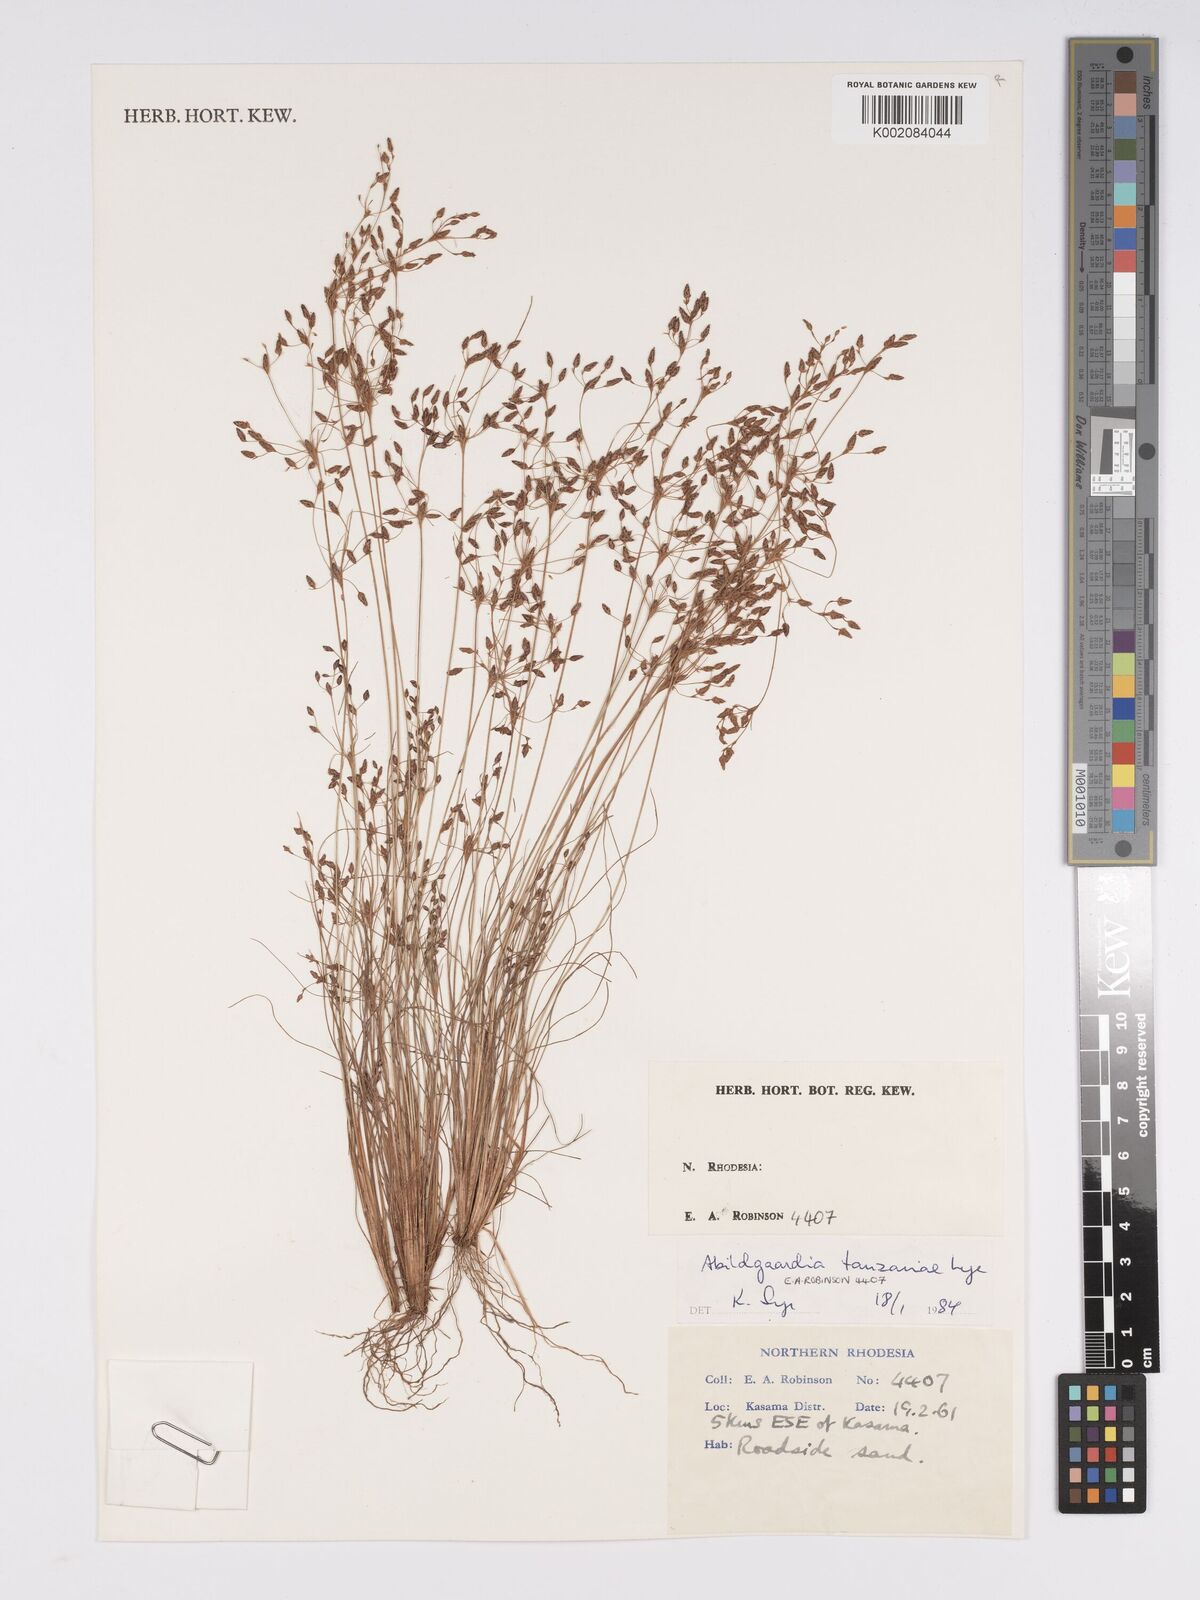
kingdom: Plantae
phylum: Tracheophyta
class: Liliopsida
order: Poales
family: Cyperaceae
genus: Bulbostylis
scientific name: Bulbostylis tanzaniae
